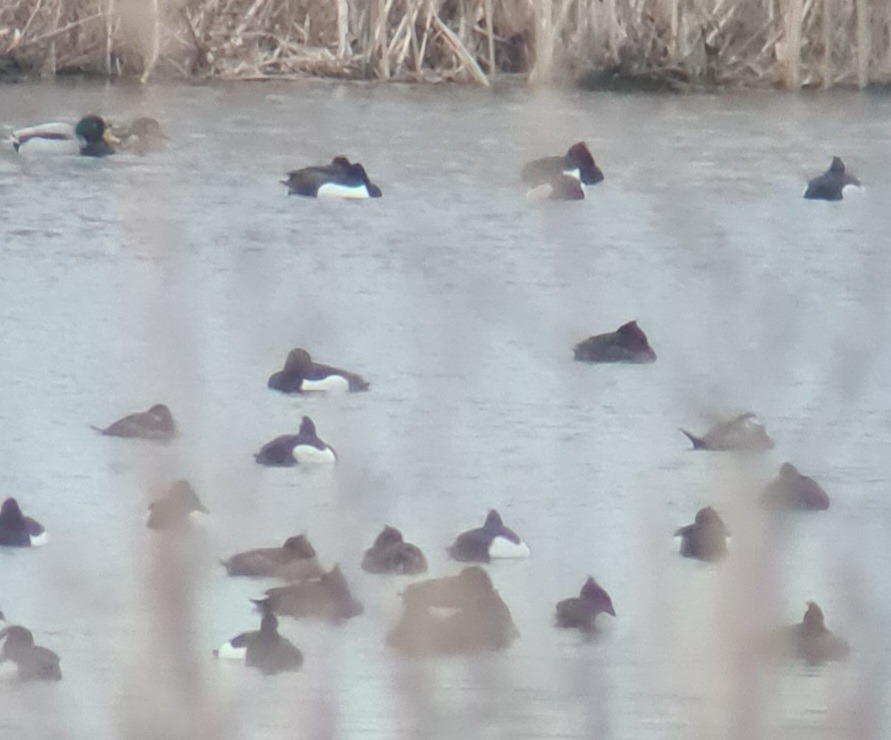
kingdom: Animalia
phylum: Chordata
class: Aves
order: Anseriformes
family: Anatidae
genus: Oxyura
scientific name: Oxyura leucocephala
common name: Hvidhovedet skarveand
